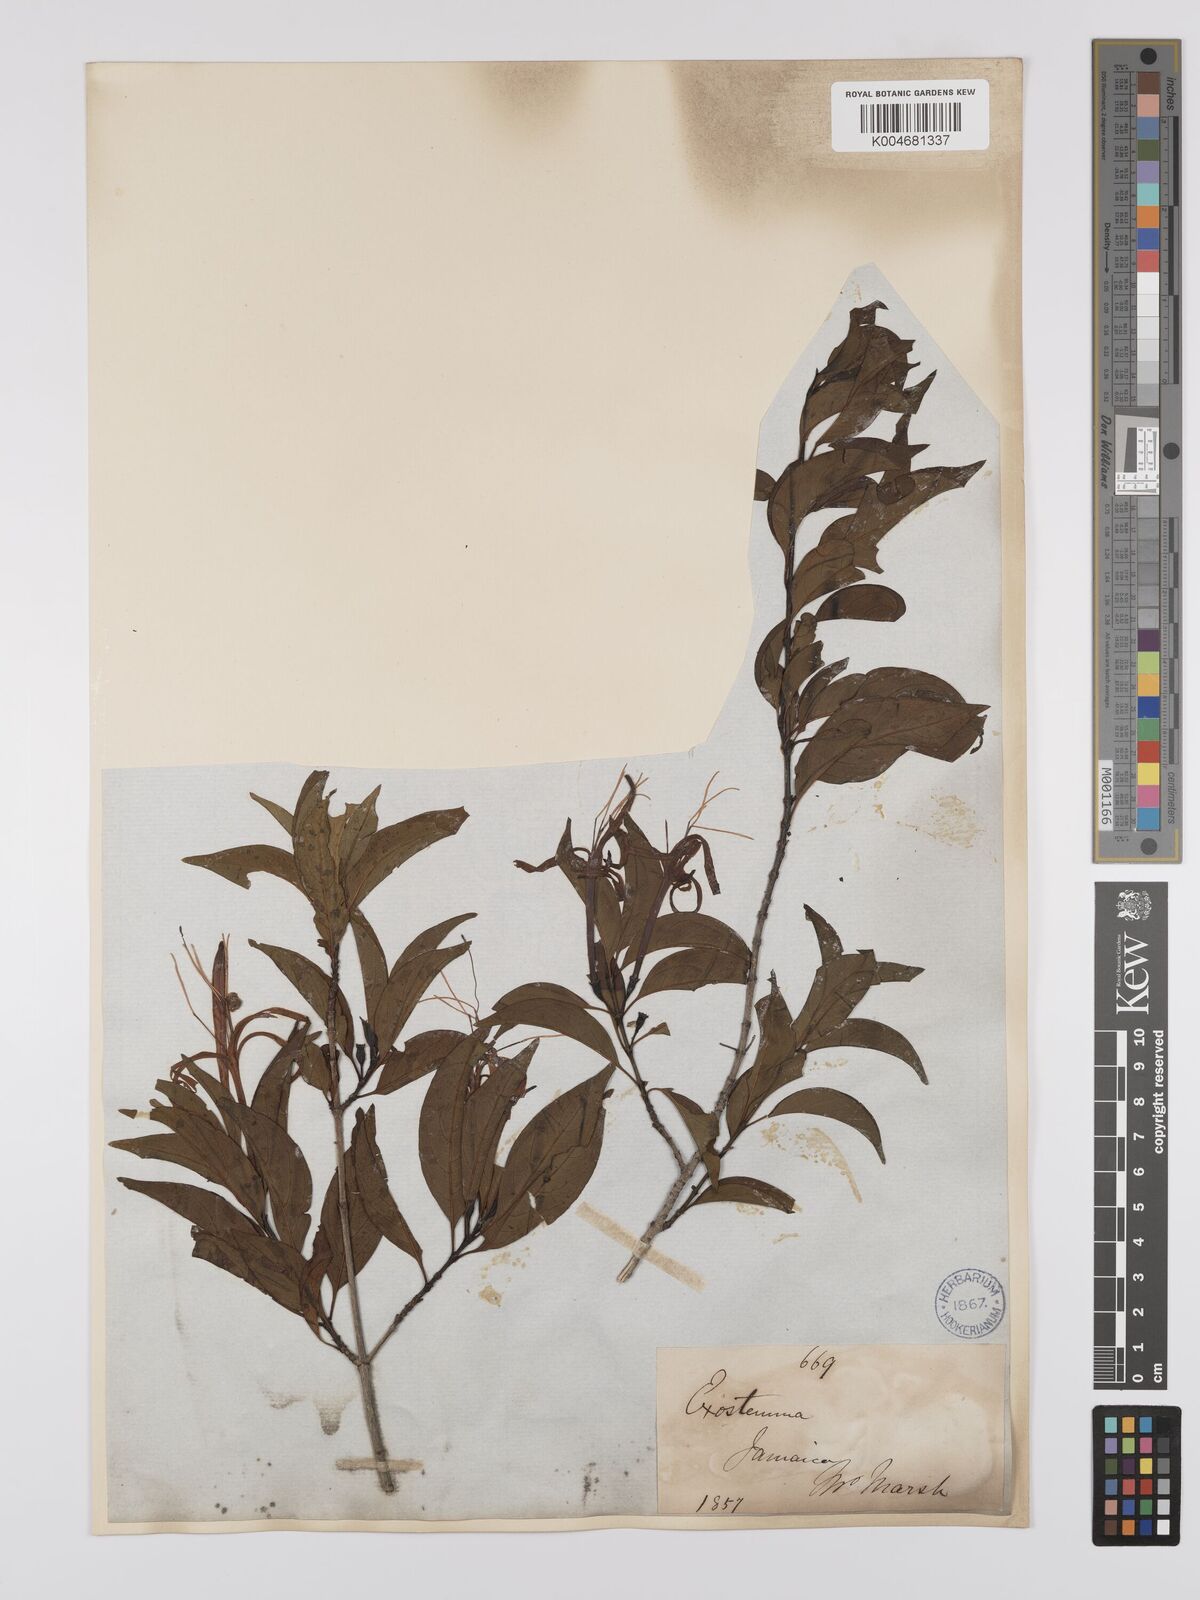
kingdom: Plantae
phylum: Tracheophyta
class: Magnoliopsida
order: Gentianales
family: Rubiaceae
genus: Exostema
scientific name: Exostema caribaeum
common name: Princewood
